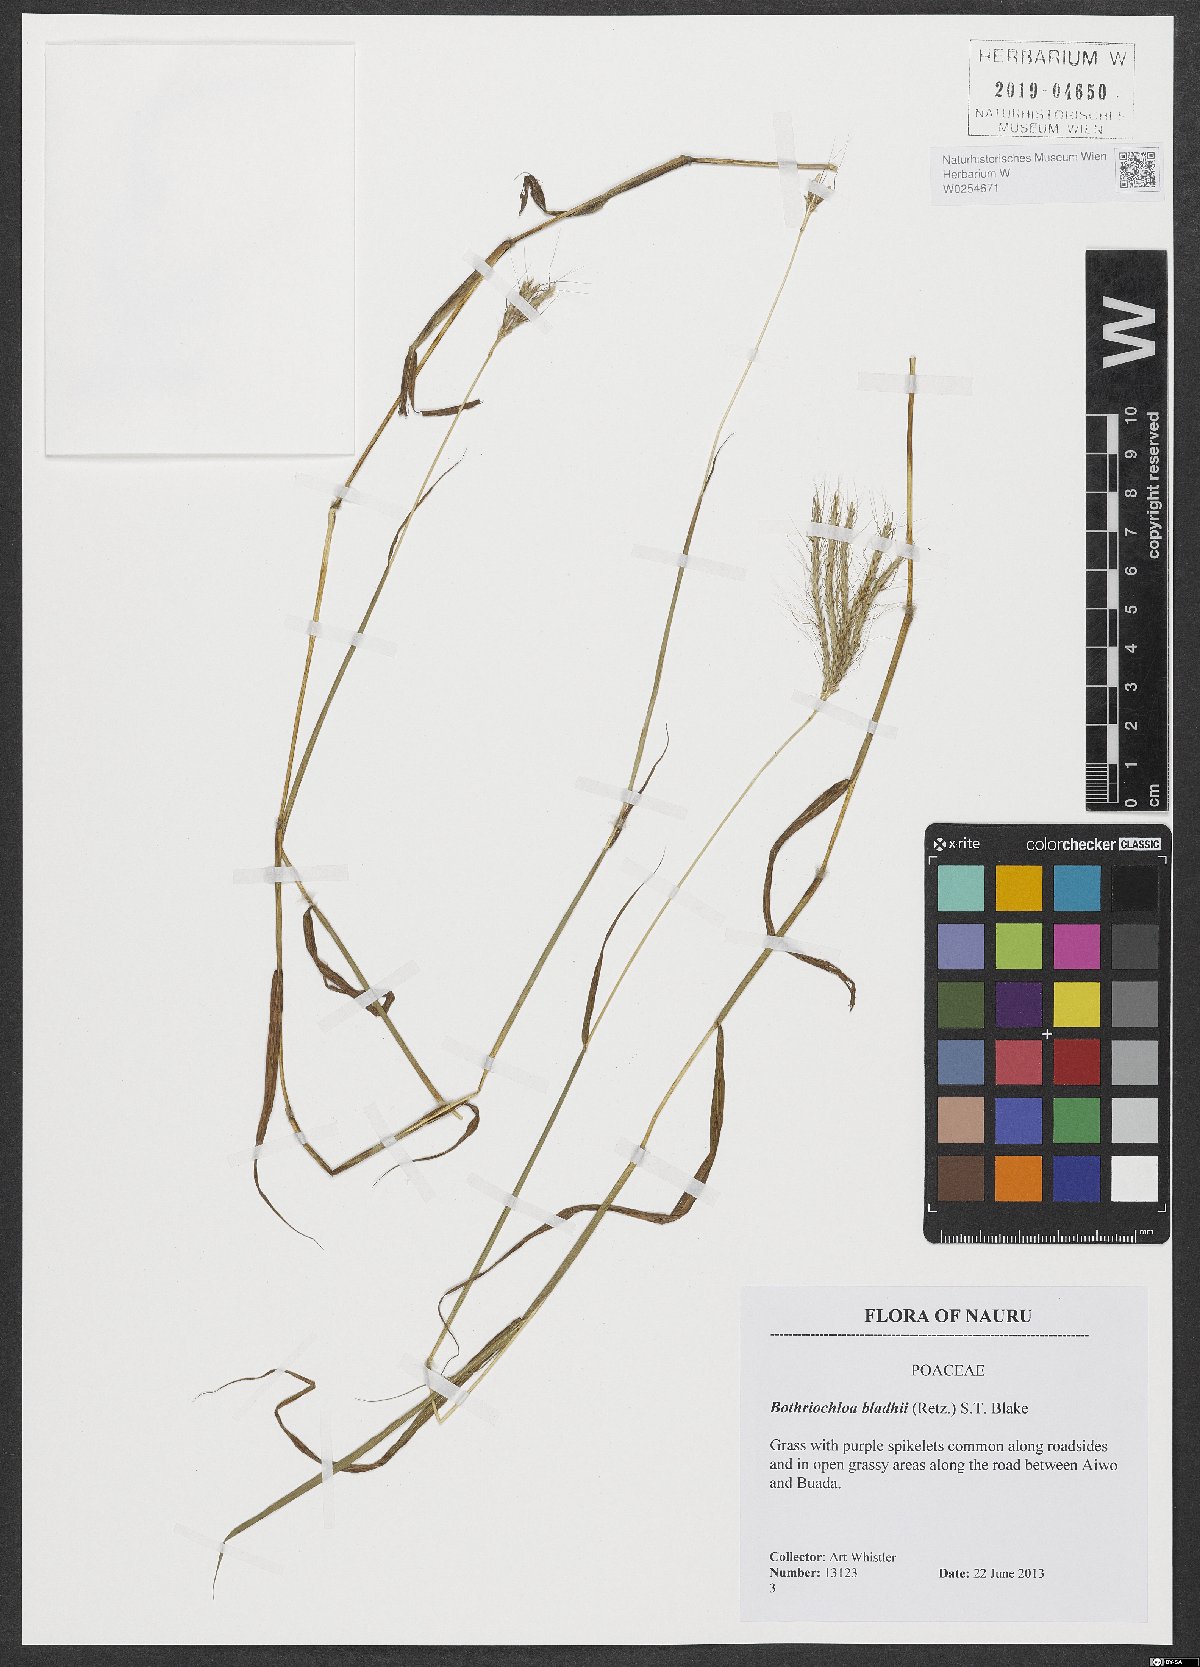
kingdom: Plantae
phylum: Tracheophyta
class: Liliopsida
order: Poales
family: Poaceae
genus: Bothriochloa
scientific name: Bothriochloa bladhii
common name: Caucasian bluestem
